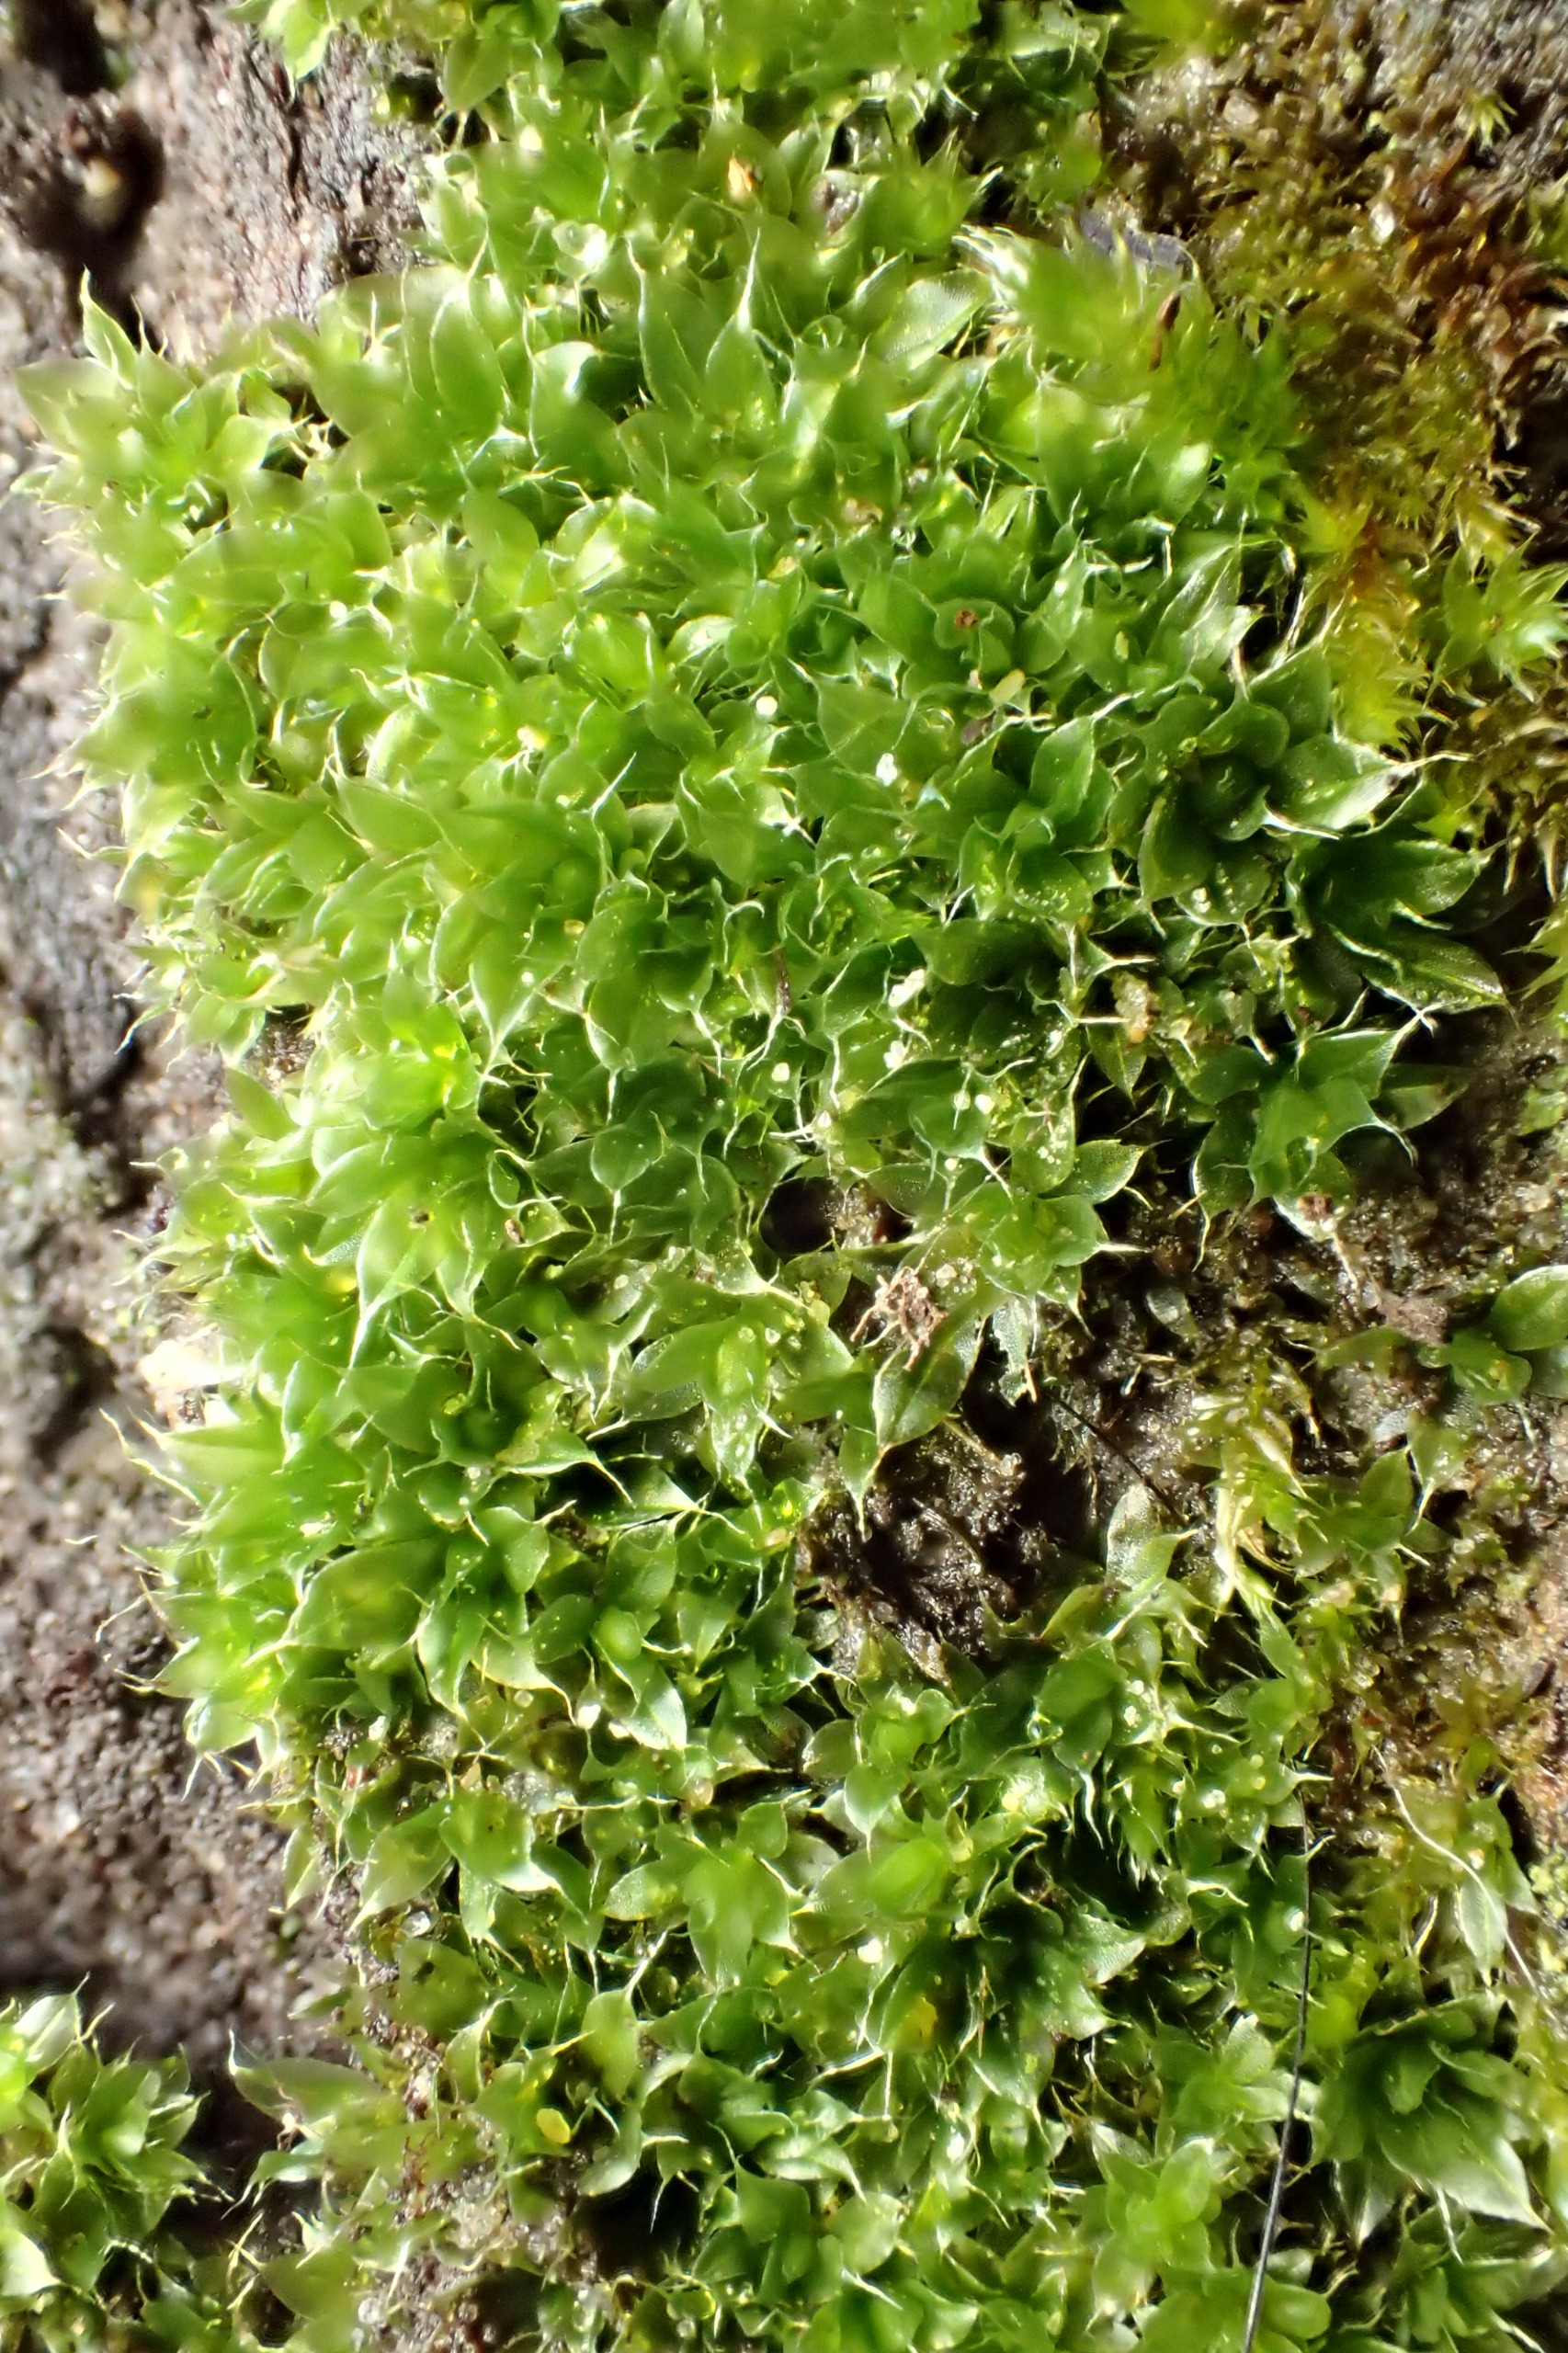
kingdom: Plantae
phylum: Bryophyta
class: Bryopsida
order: Bryales
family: Bryaceae
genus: Rosulabryum
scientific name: Rosulabryum capillare
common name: Hårspidset bryum
